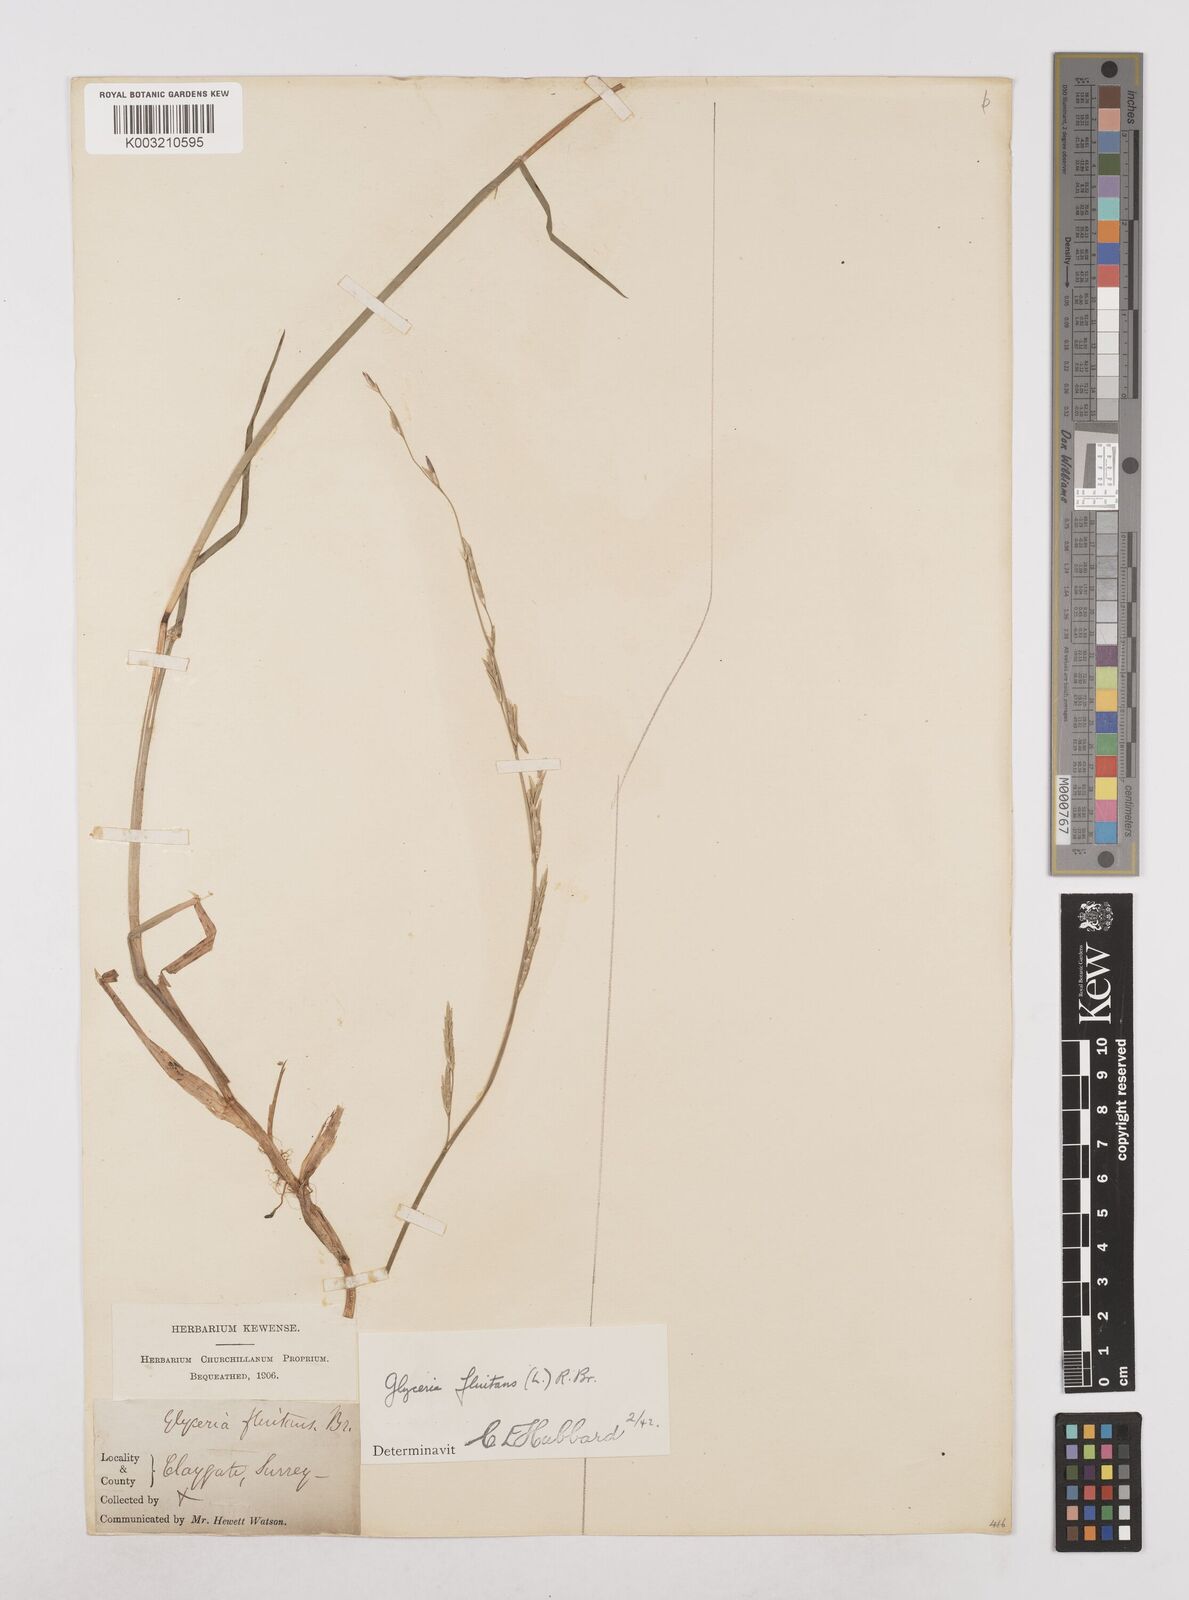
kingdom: Plantae
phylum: Tracheophyta
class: Liliopsida
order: Poales
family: Poaceae
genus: Glyceria
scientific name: Glyceria fluitans
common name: Floating sweet-grass
